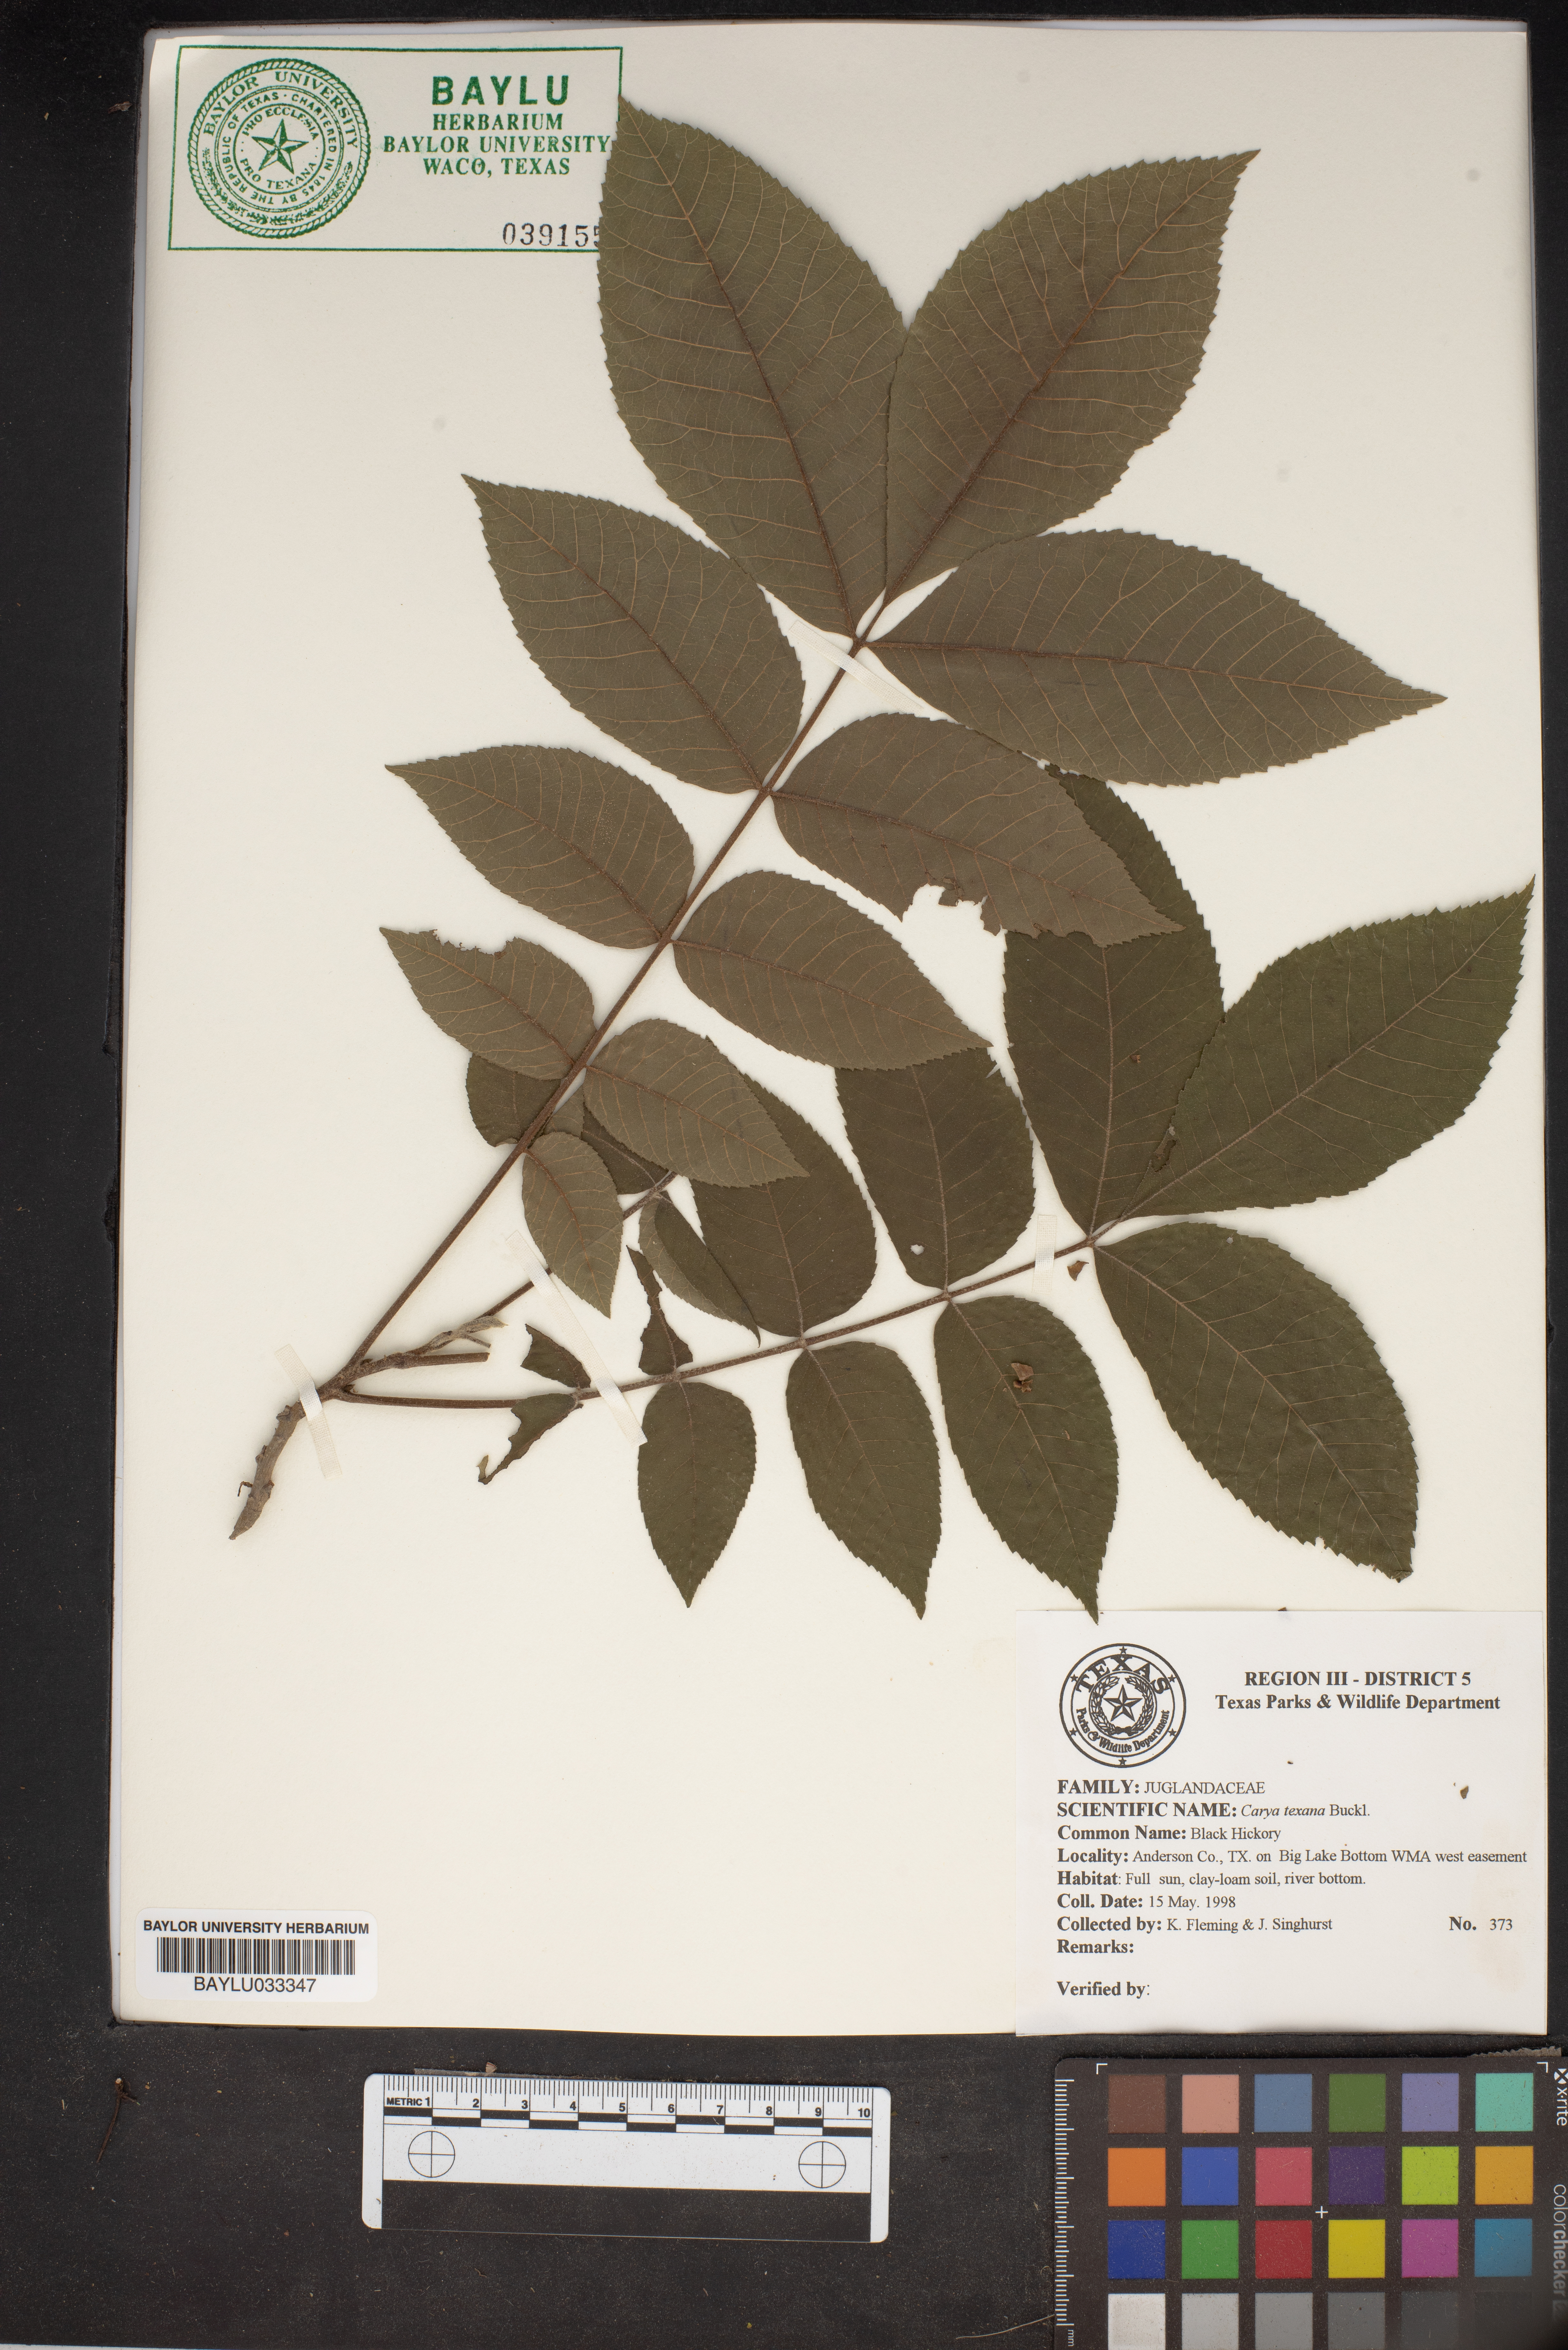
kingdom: Plantae
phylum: Tracheophyta
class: Magnoliopsida
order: Fagales
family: Juglandaceae
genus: Carya
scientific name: Carya texana
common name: Black hickory
